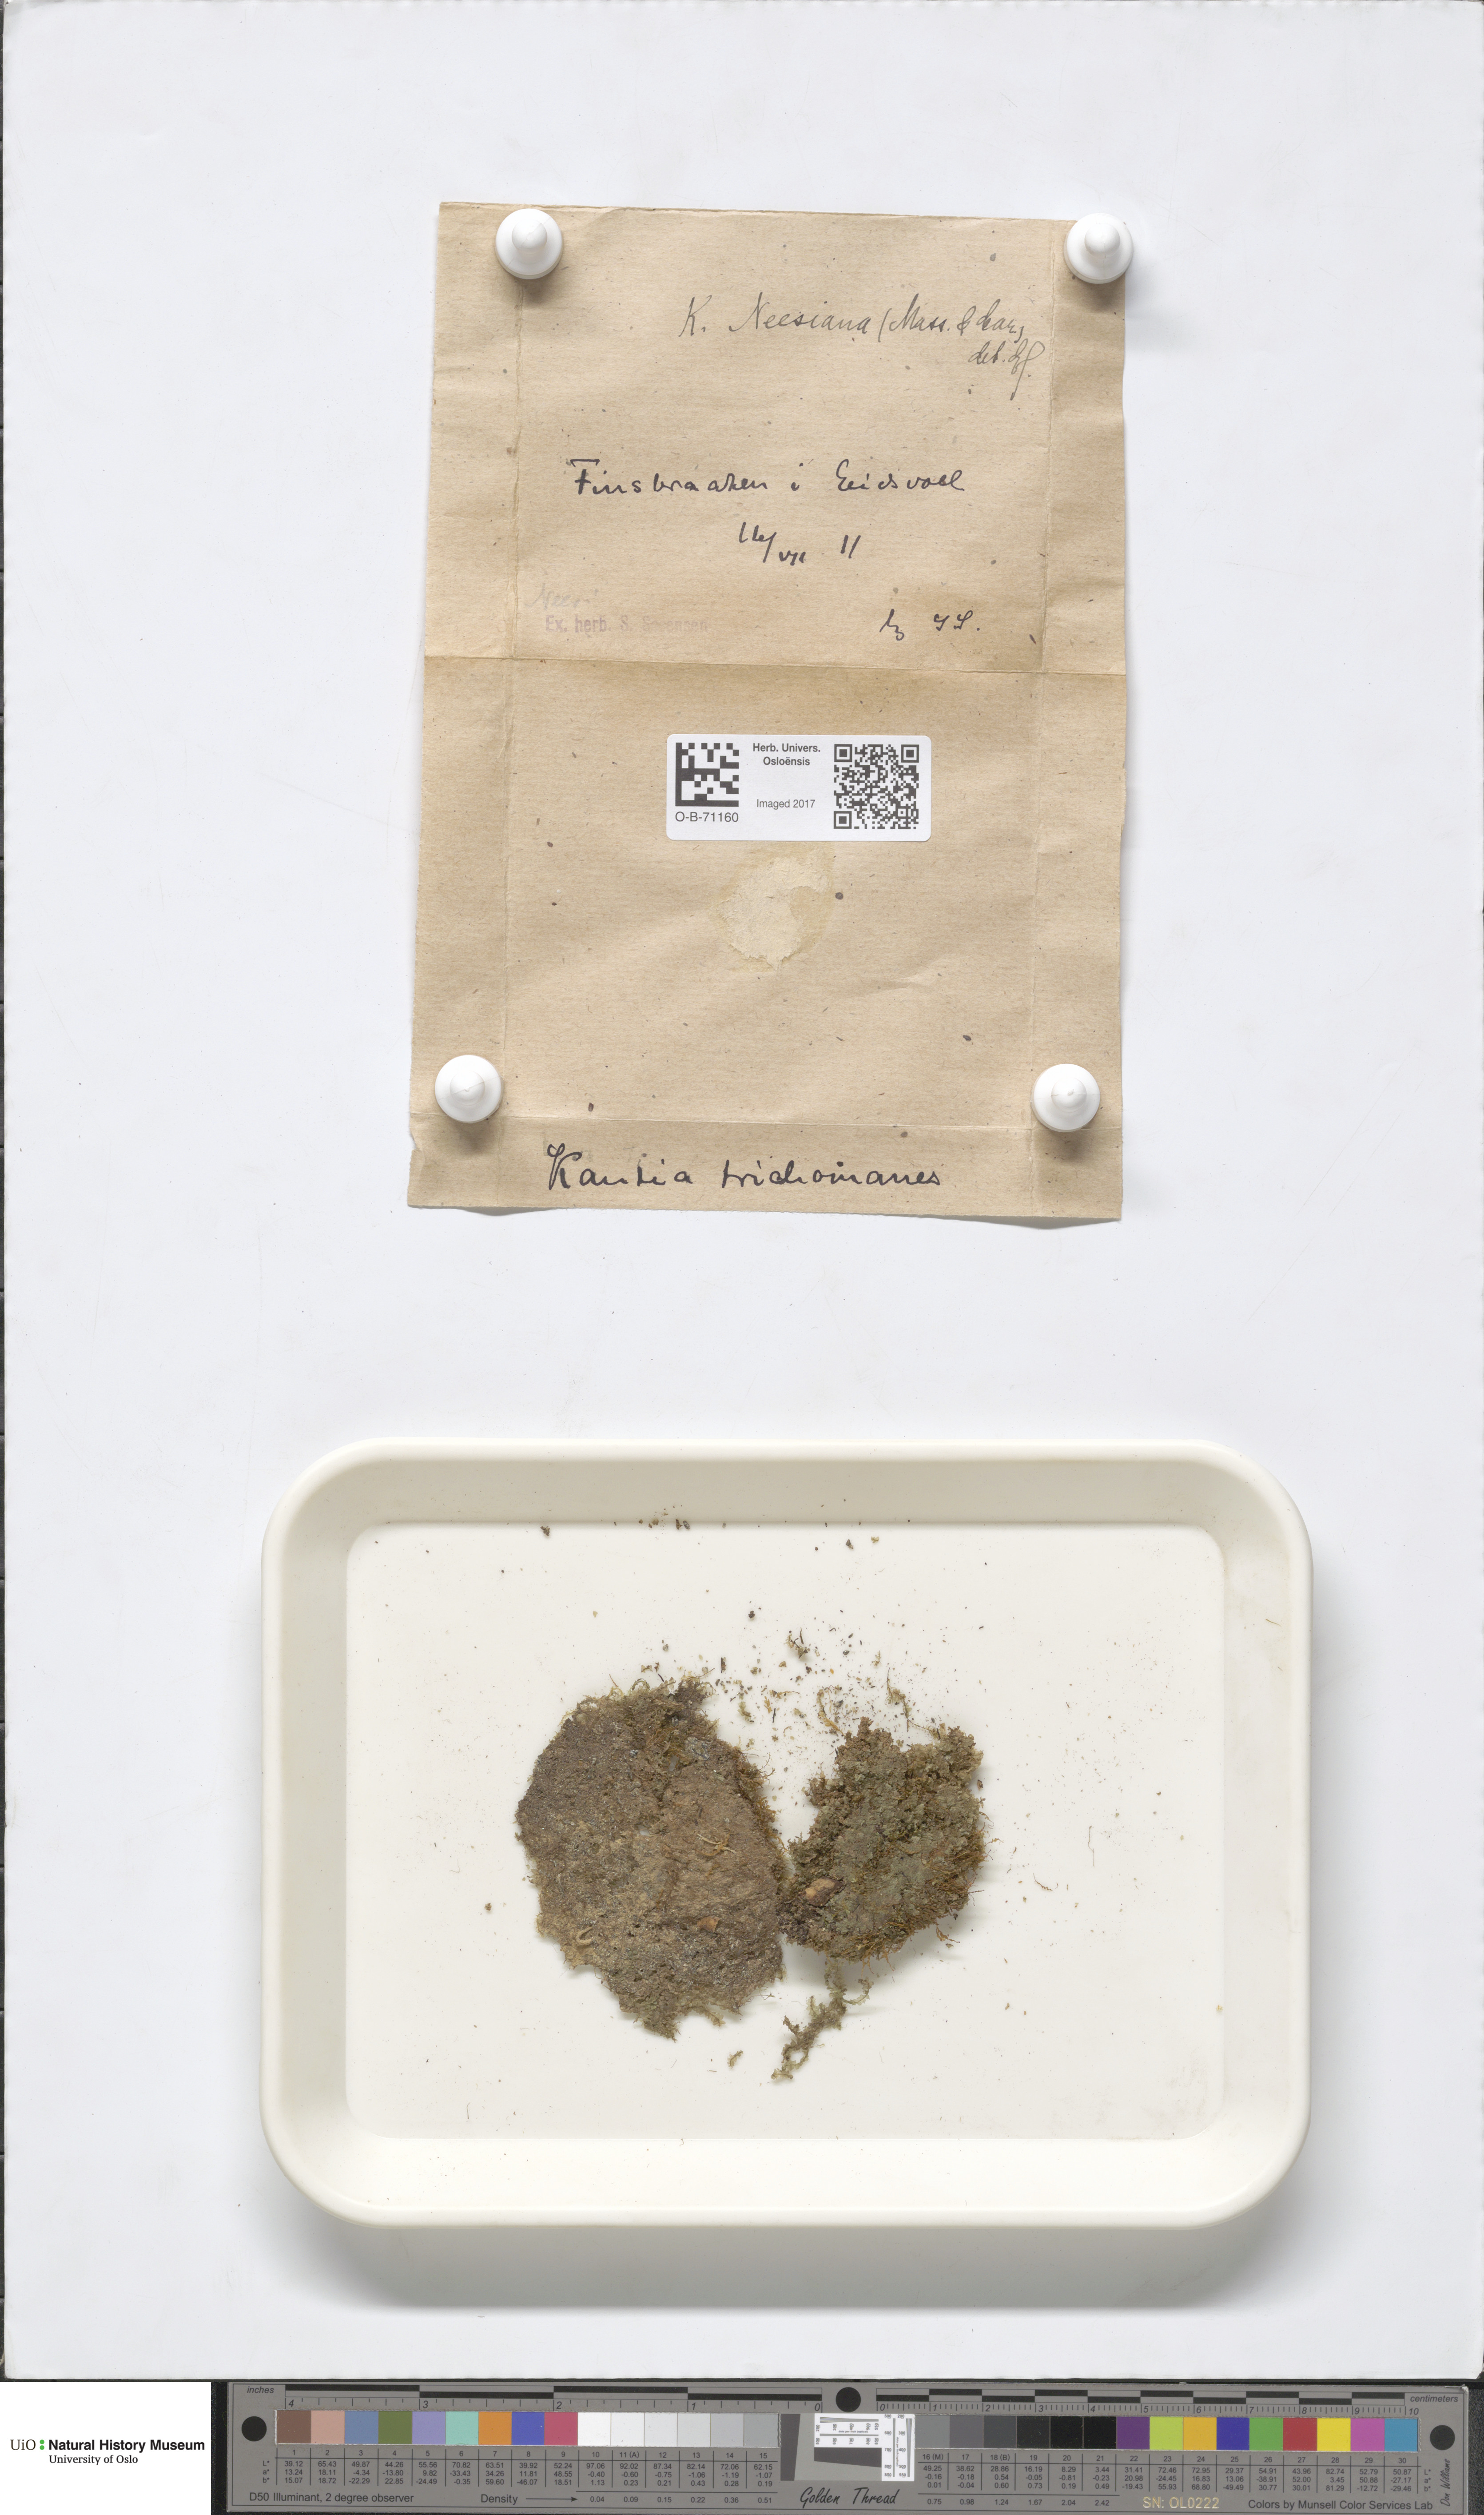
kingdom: Plantae
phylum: Marchantiophyta
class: Jungermanniopsida
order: Jungermanniales
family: Calypogeiaceae
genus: Calypogeia
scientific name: Calypogeia neesiana
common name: Nees  pouchwort
